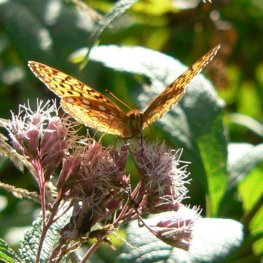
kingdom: Animalia
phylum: Arthropoda
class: Insecta
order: Lepidoptera
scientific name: Lepidoptera
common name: Butterflies
